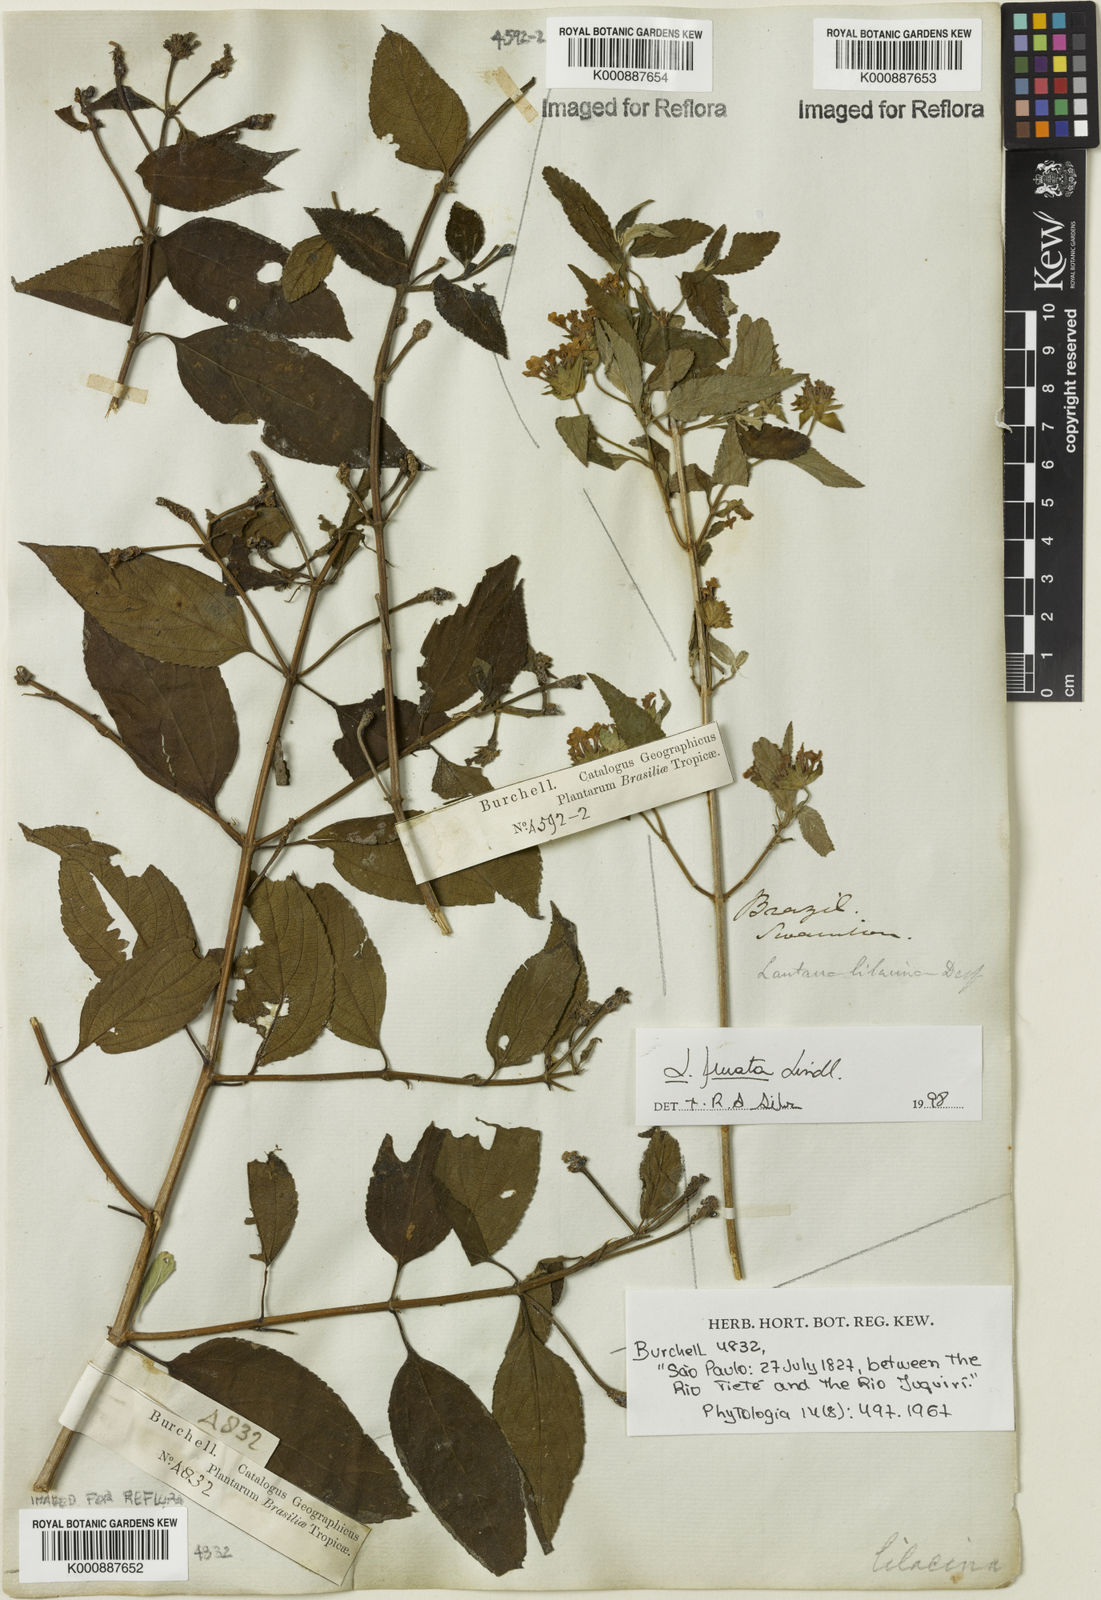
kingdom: Plantae
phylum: Tracheophyta
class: Magnoliopsida
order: Lamiales
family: Verbenaceae
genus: Lantana
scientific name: Lantana fucata
